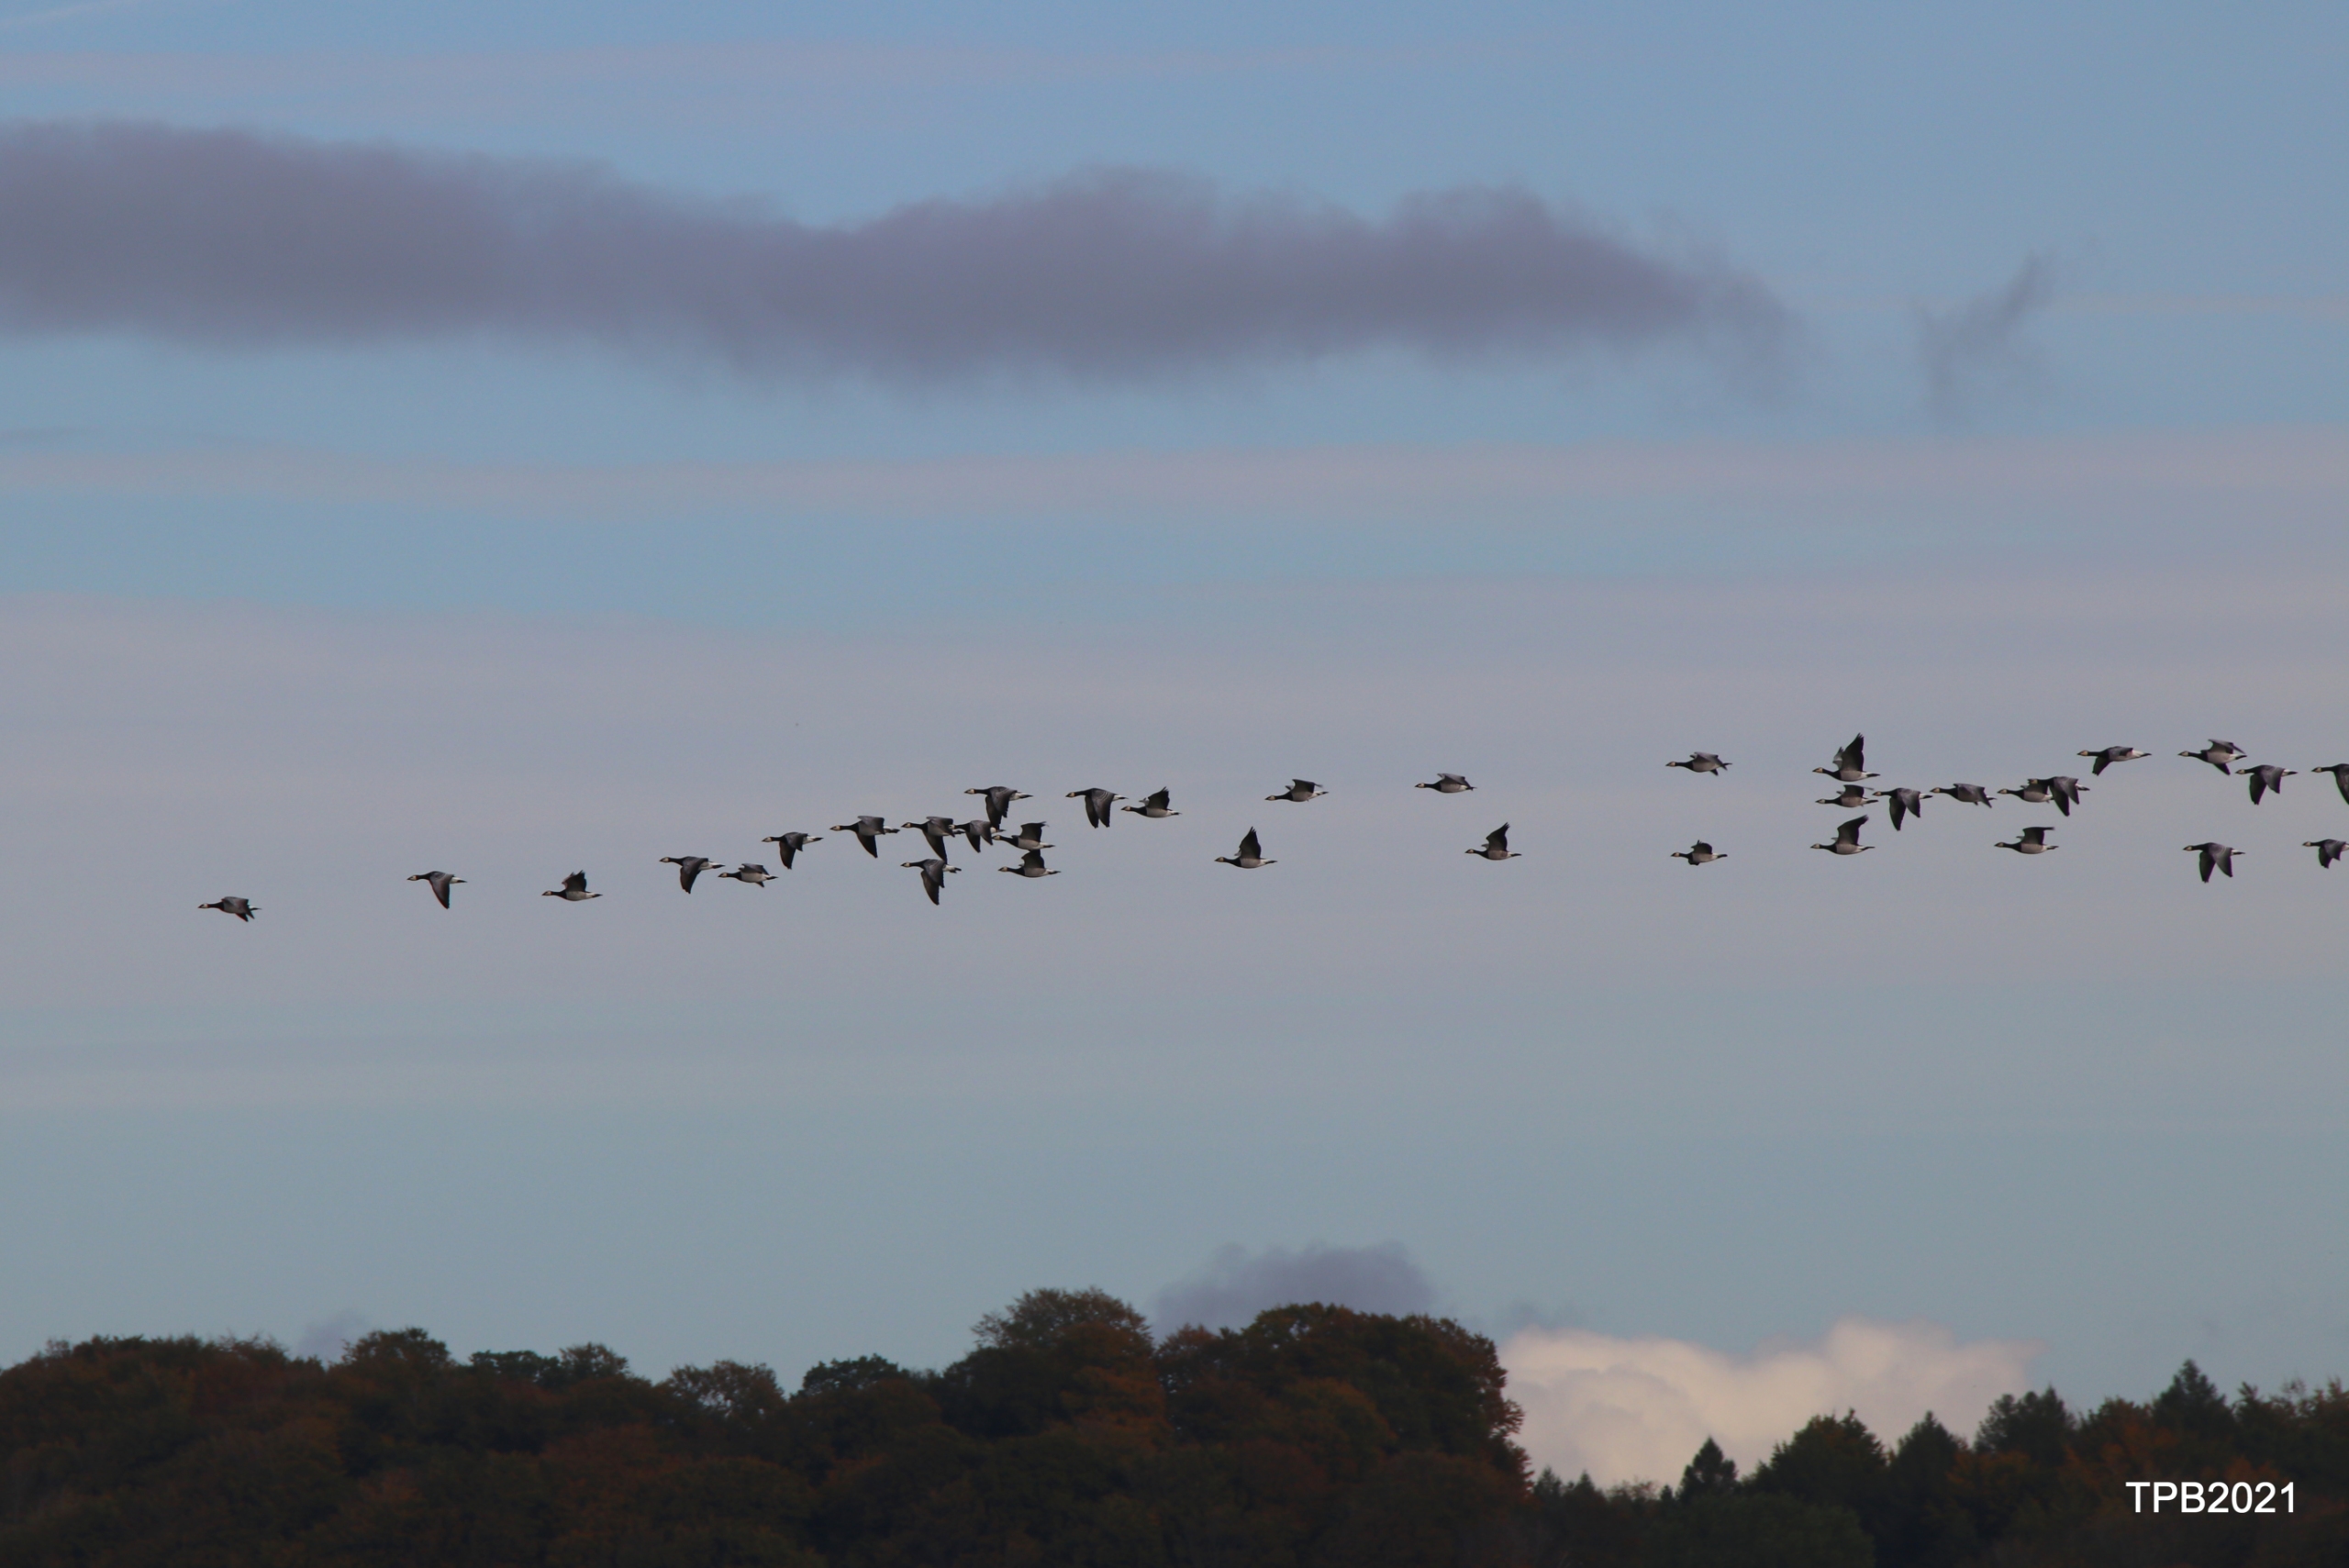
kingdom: Animalia
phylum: Chordata
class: Aves
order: Anseriformes
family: Anatidae
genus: Branta
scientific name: Branta leucopsis
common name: Bramgås
